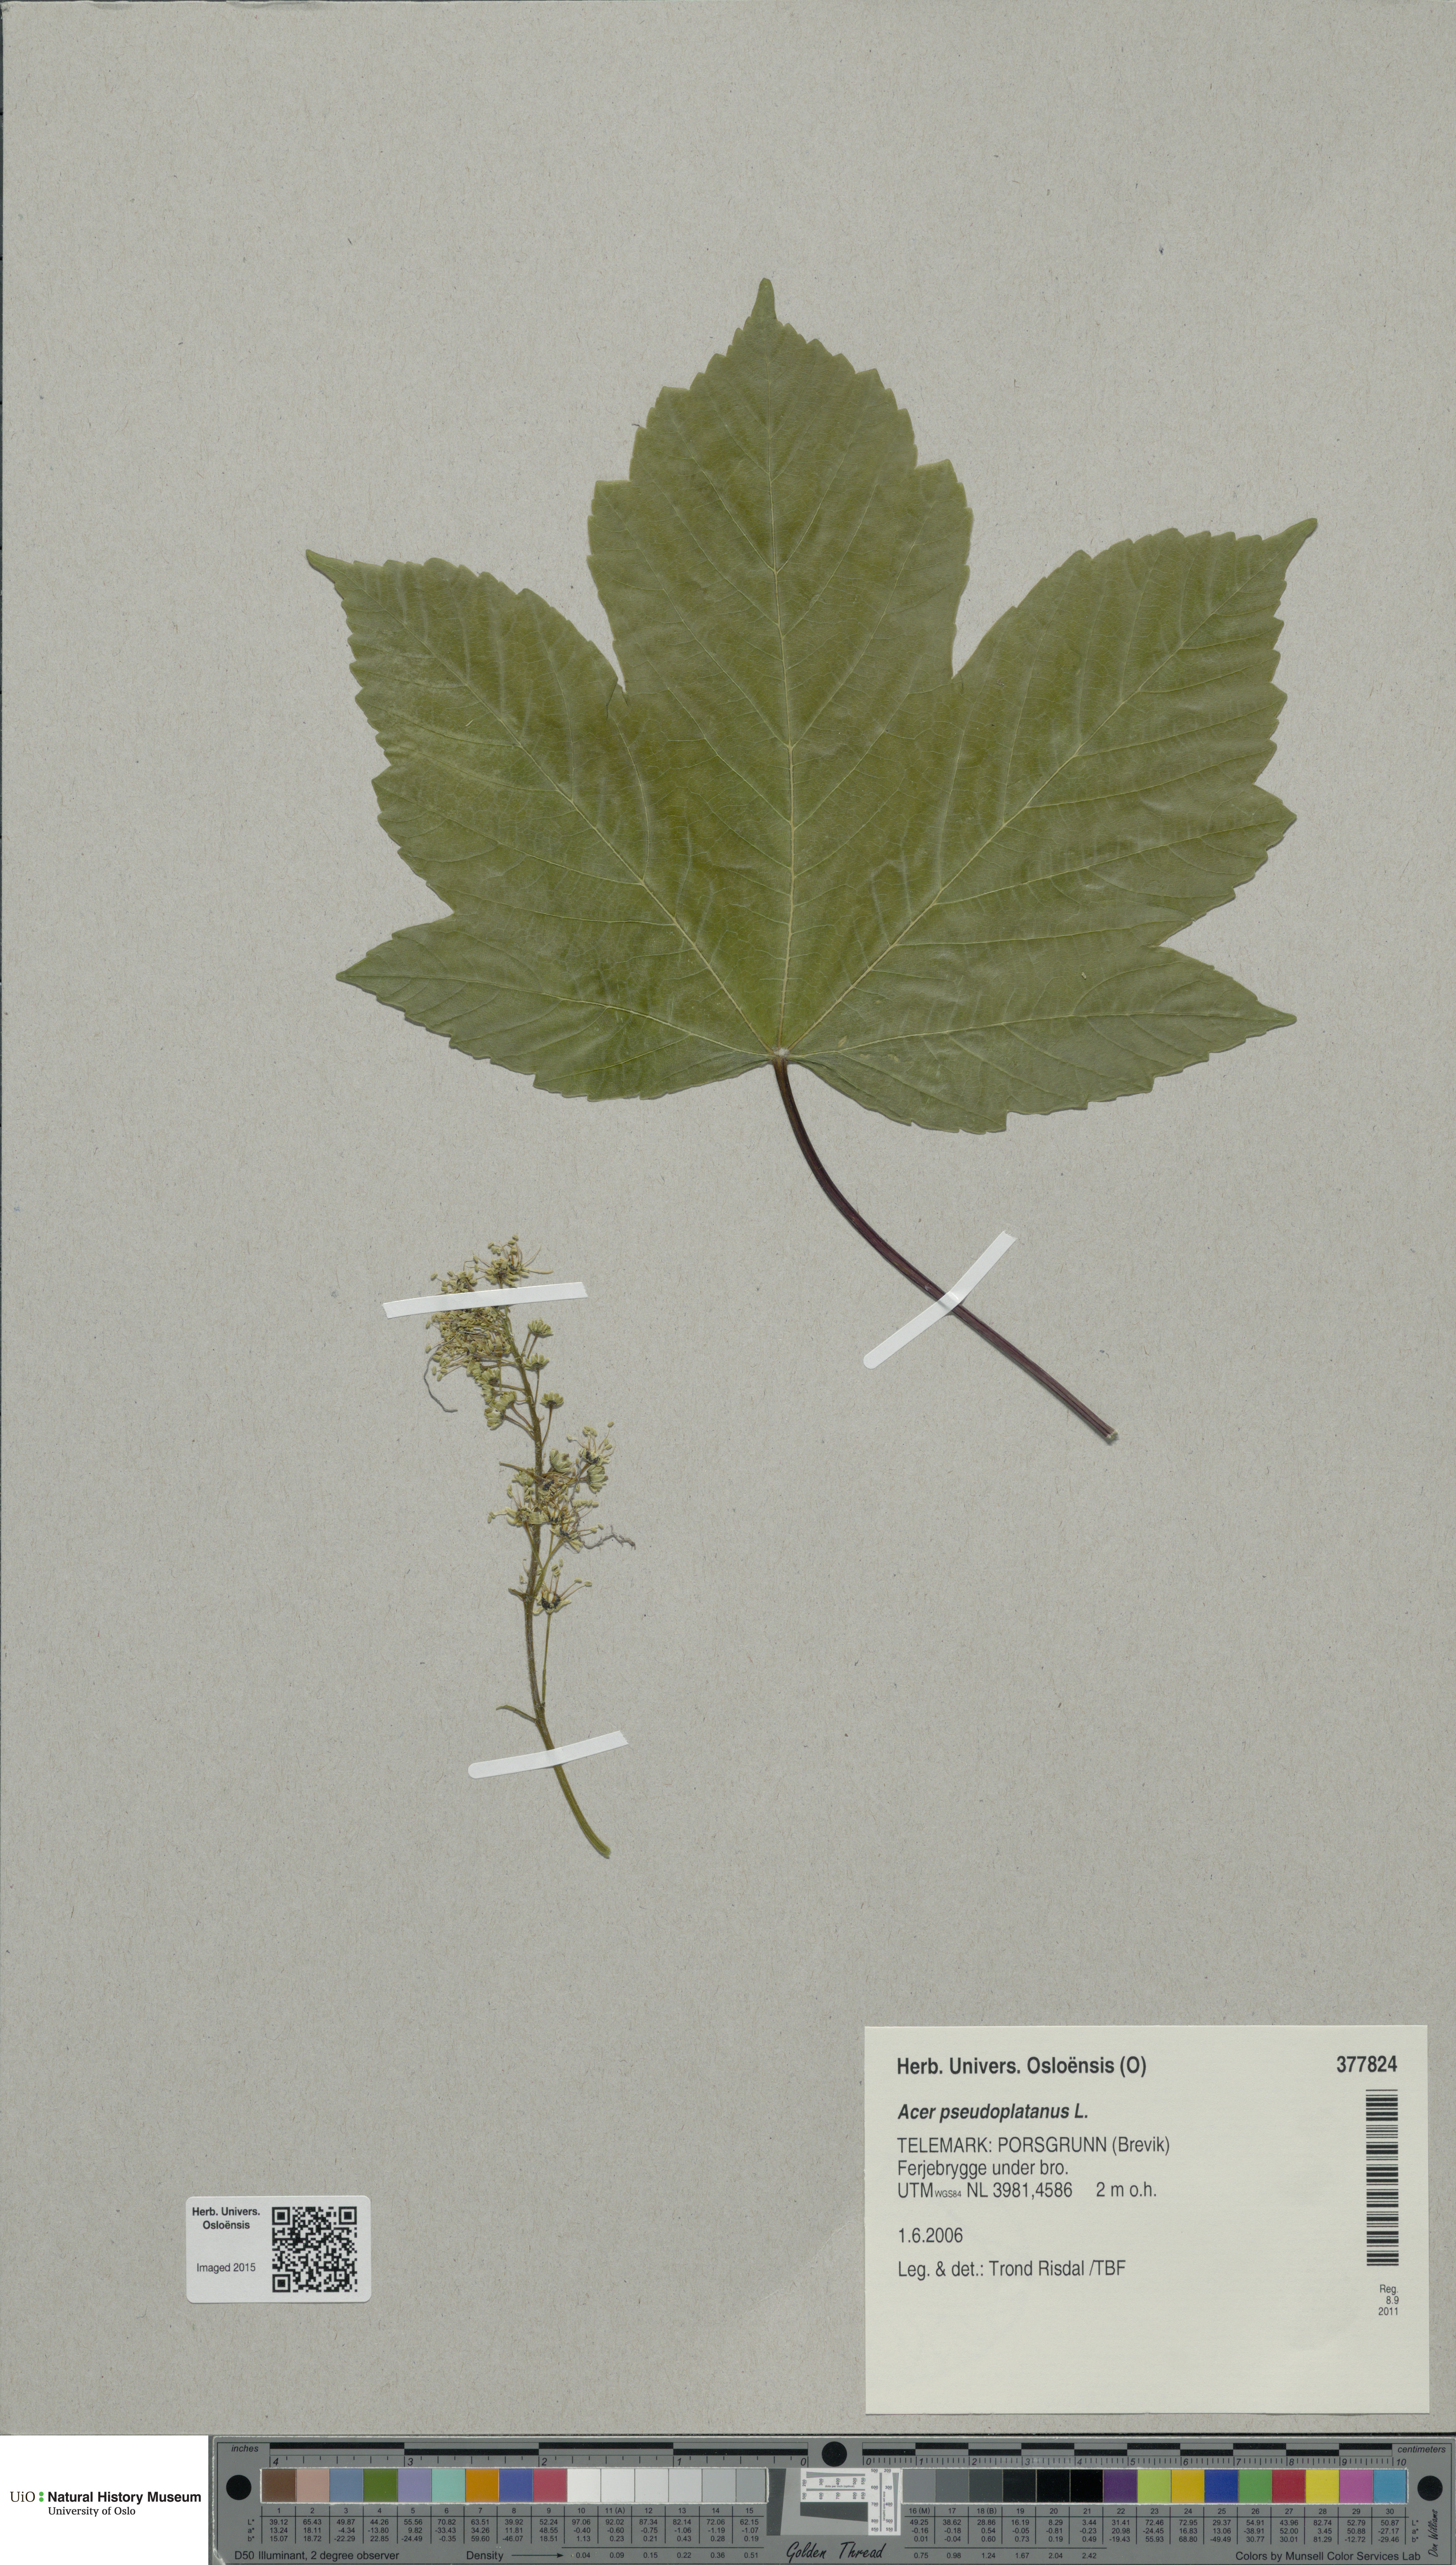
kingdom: Plantae
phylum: Tracheophyta
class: Magnoliopsida
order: Sapindales
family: Sapindaceae
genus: Acer
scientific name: Acer pseudoplatanus
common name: Sycamore
